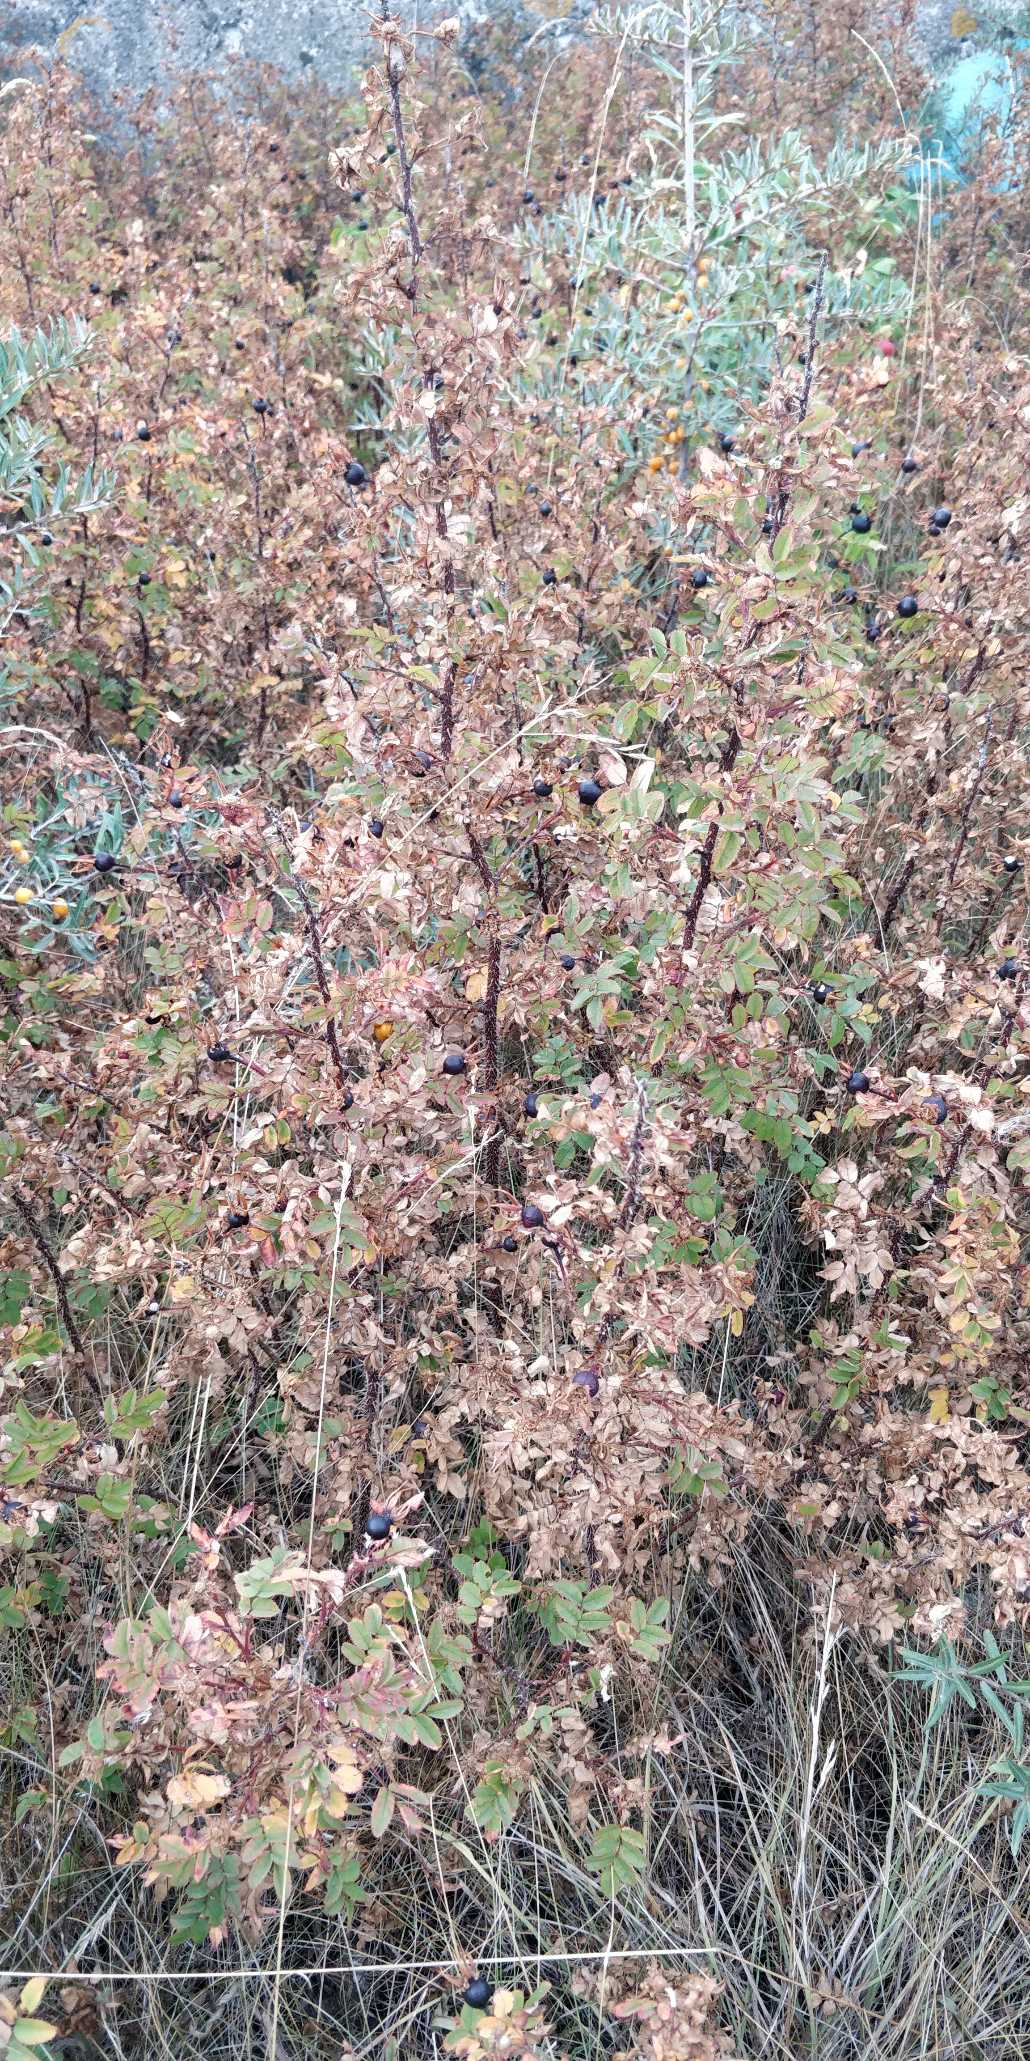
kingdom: Plantae
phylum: Tracheophyta
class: Magnoliopsida
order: Rosales
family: Rosaceae
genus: Rosa
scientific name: Rosa spinosissima
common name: Klit-rose
